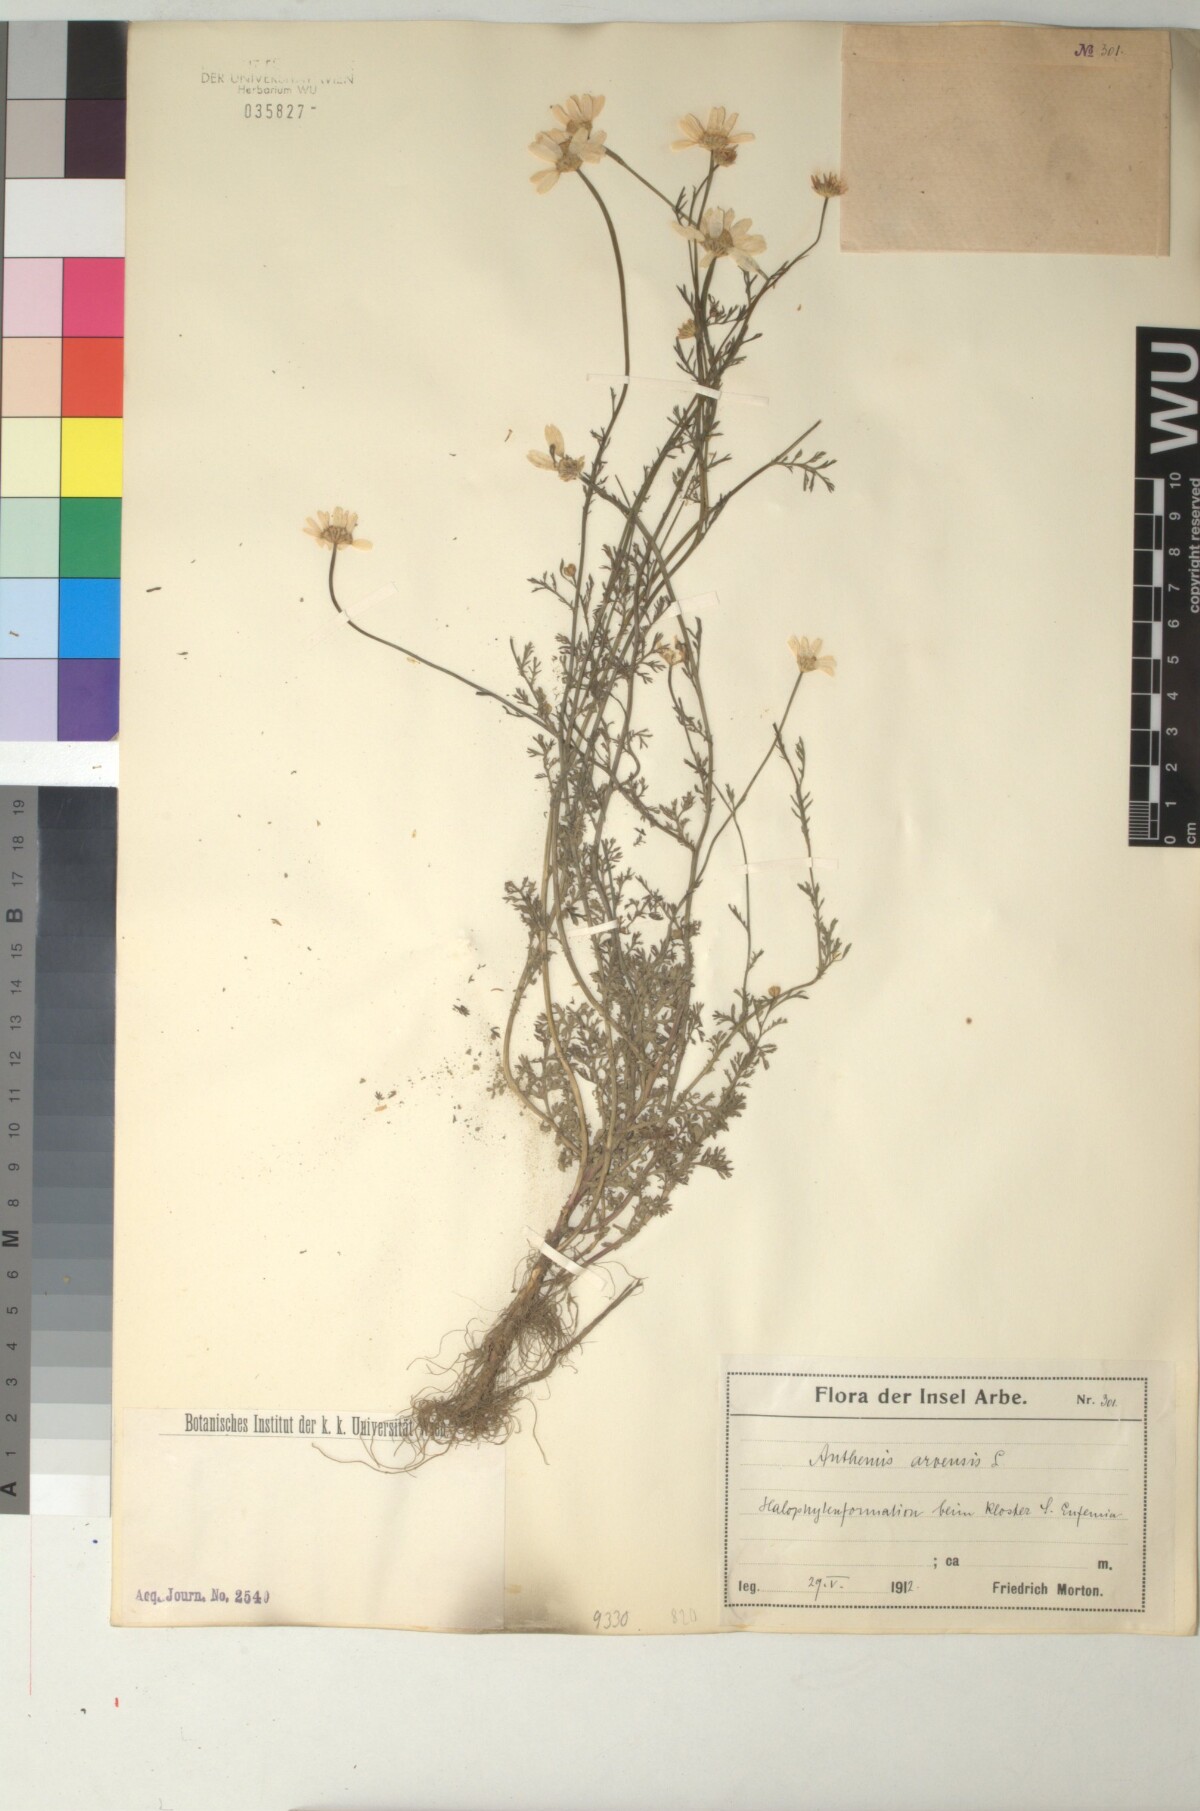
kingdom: Plantae
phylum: Tracheophyta
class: Magnoliopsida
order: Asterales
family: Asteraceae
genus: Anthemis
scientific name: Anthemis arvensis
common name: Corn chamomile
